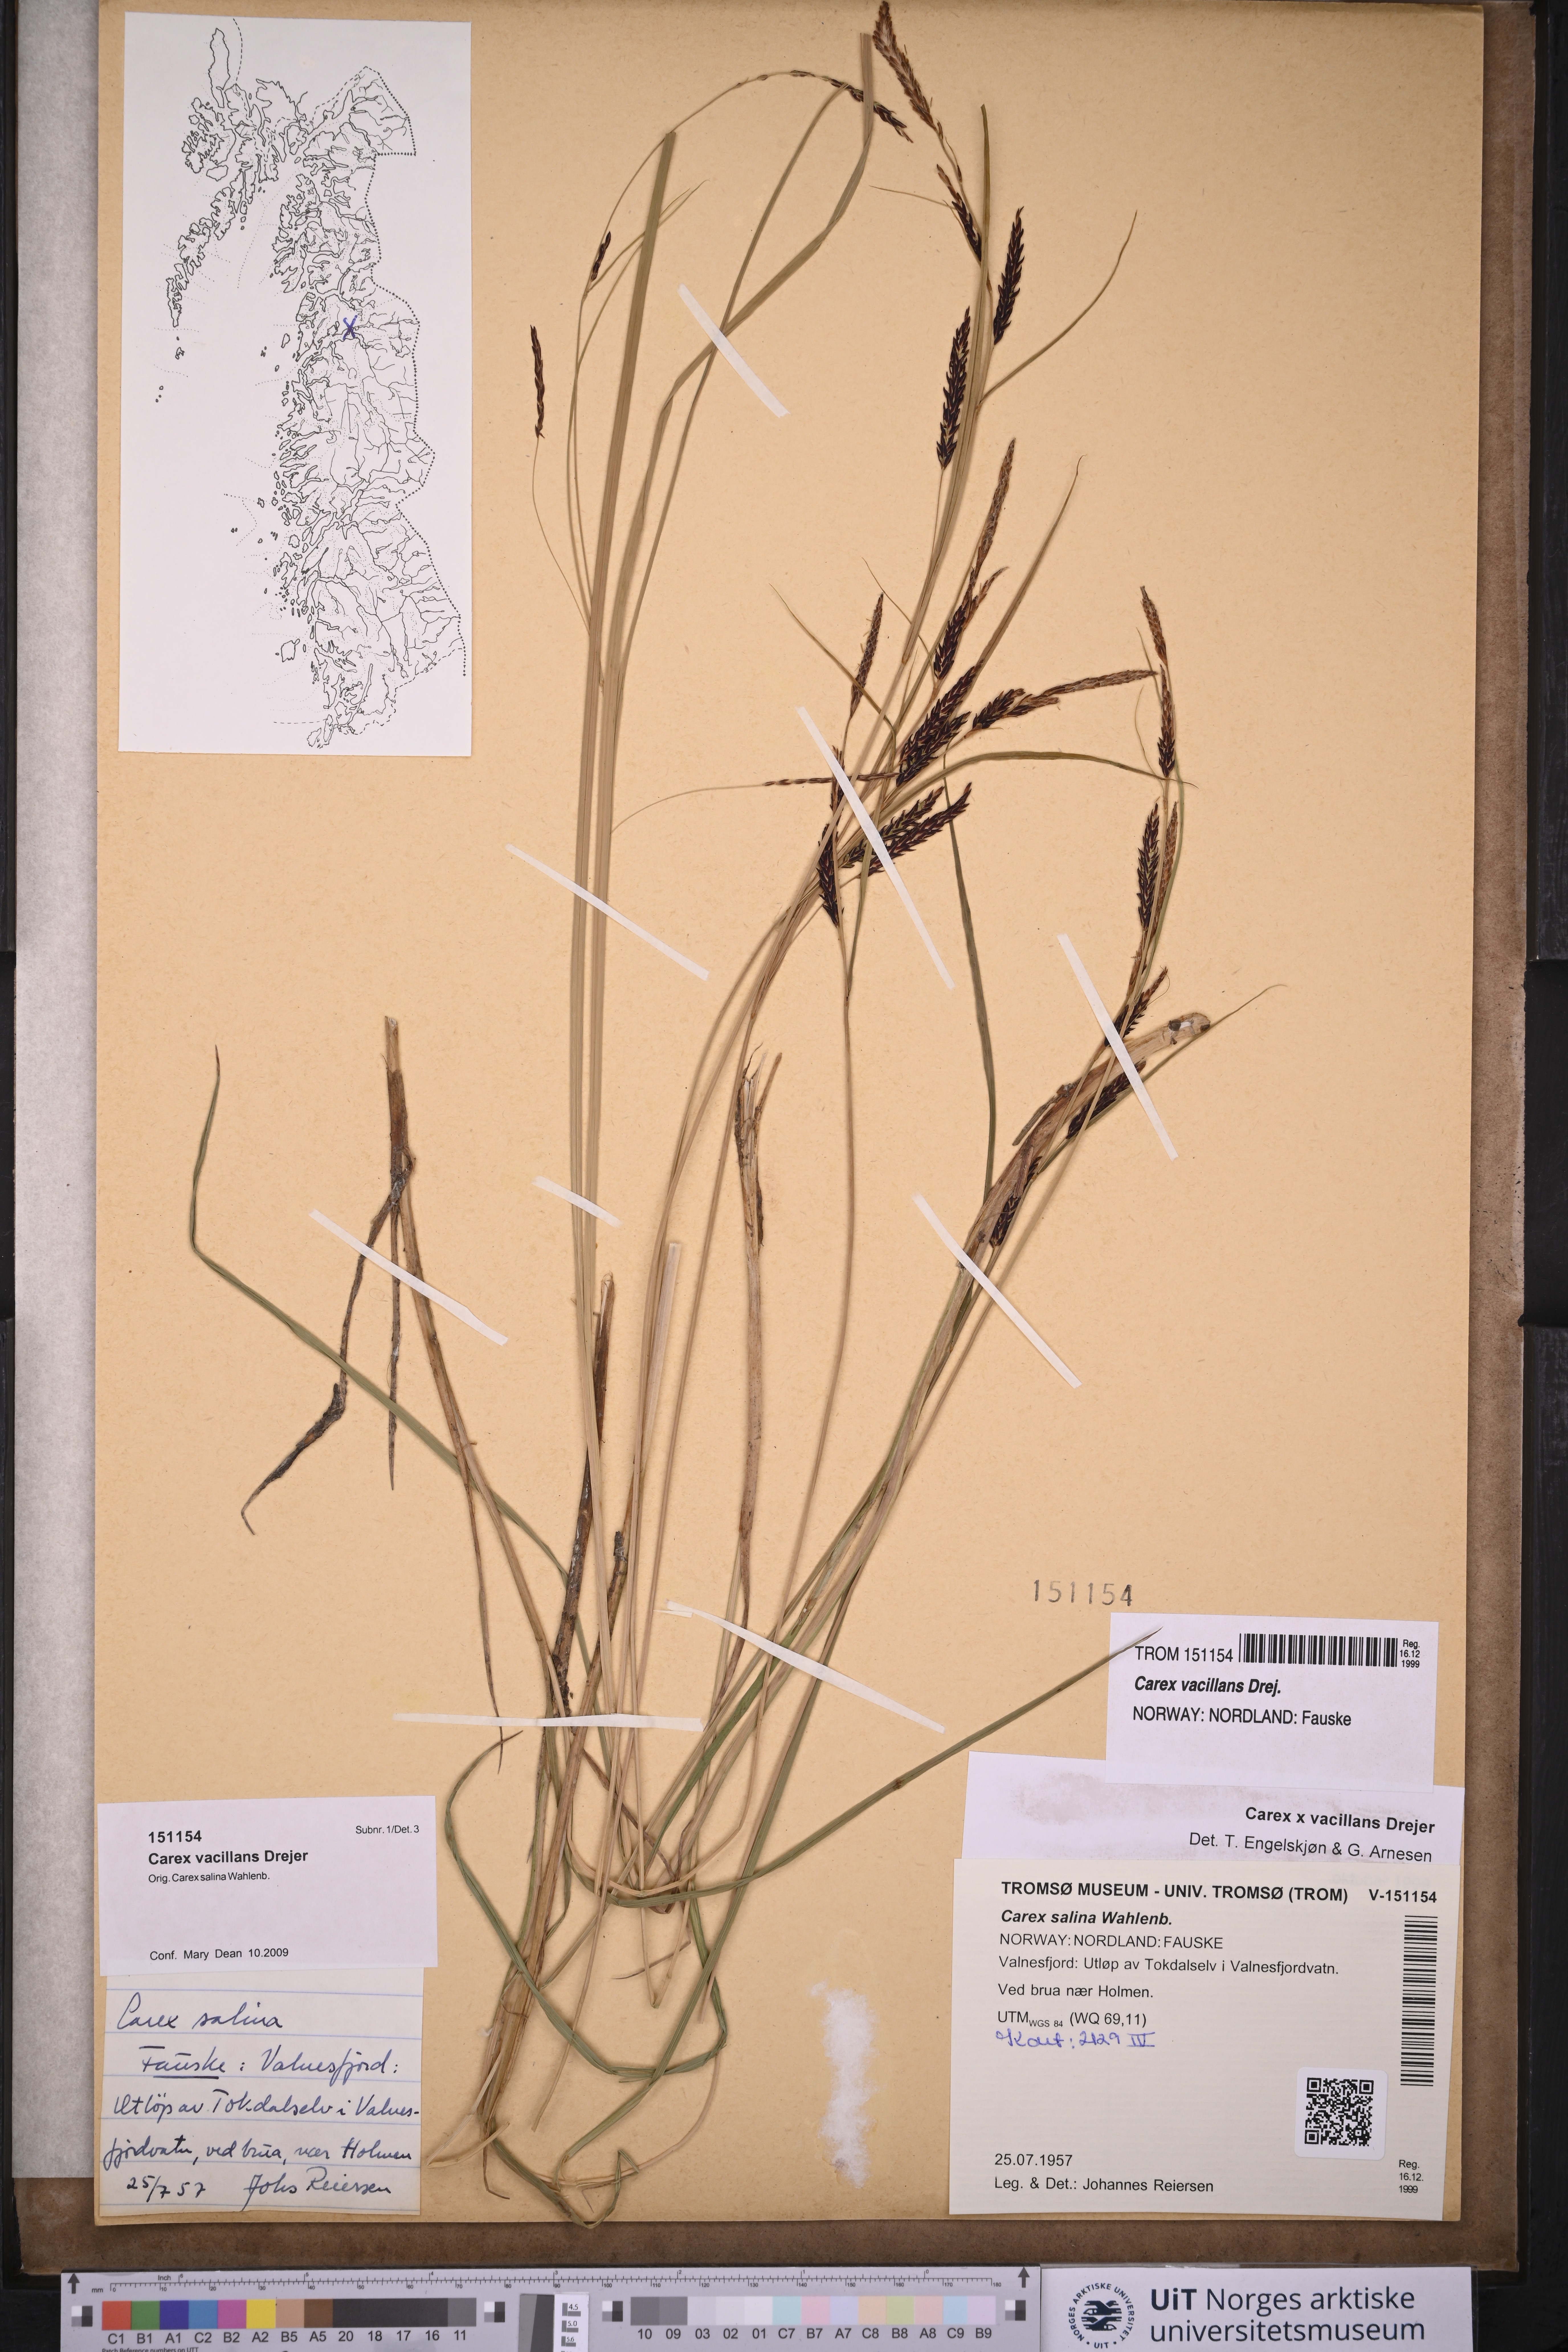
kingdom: Plantae
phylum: Tracheophyta
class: Liliopsida
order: Poales
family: Cyperaceae
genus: Carex
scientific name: Carex vacillans
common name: Sedge
